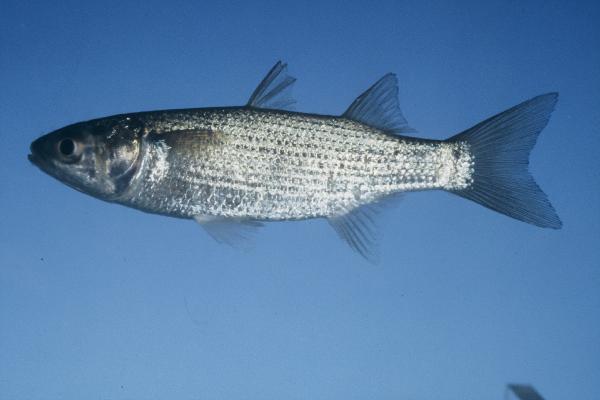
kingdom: Animalia
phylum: Chordata
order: Mugiliformes
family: Mugilidae
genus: Mugil
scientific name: Mugil cephalus
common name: Grey mullet
